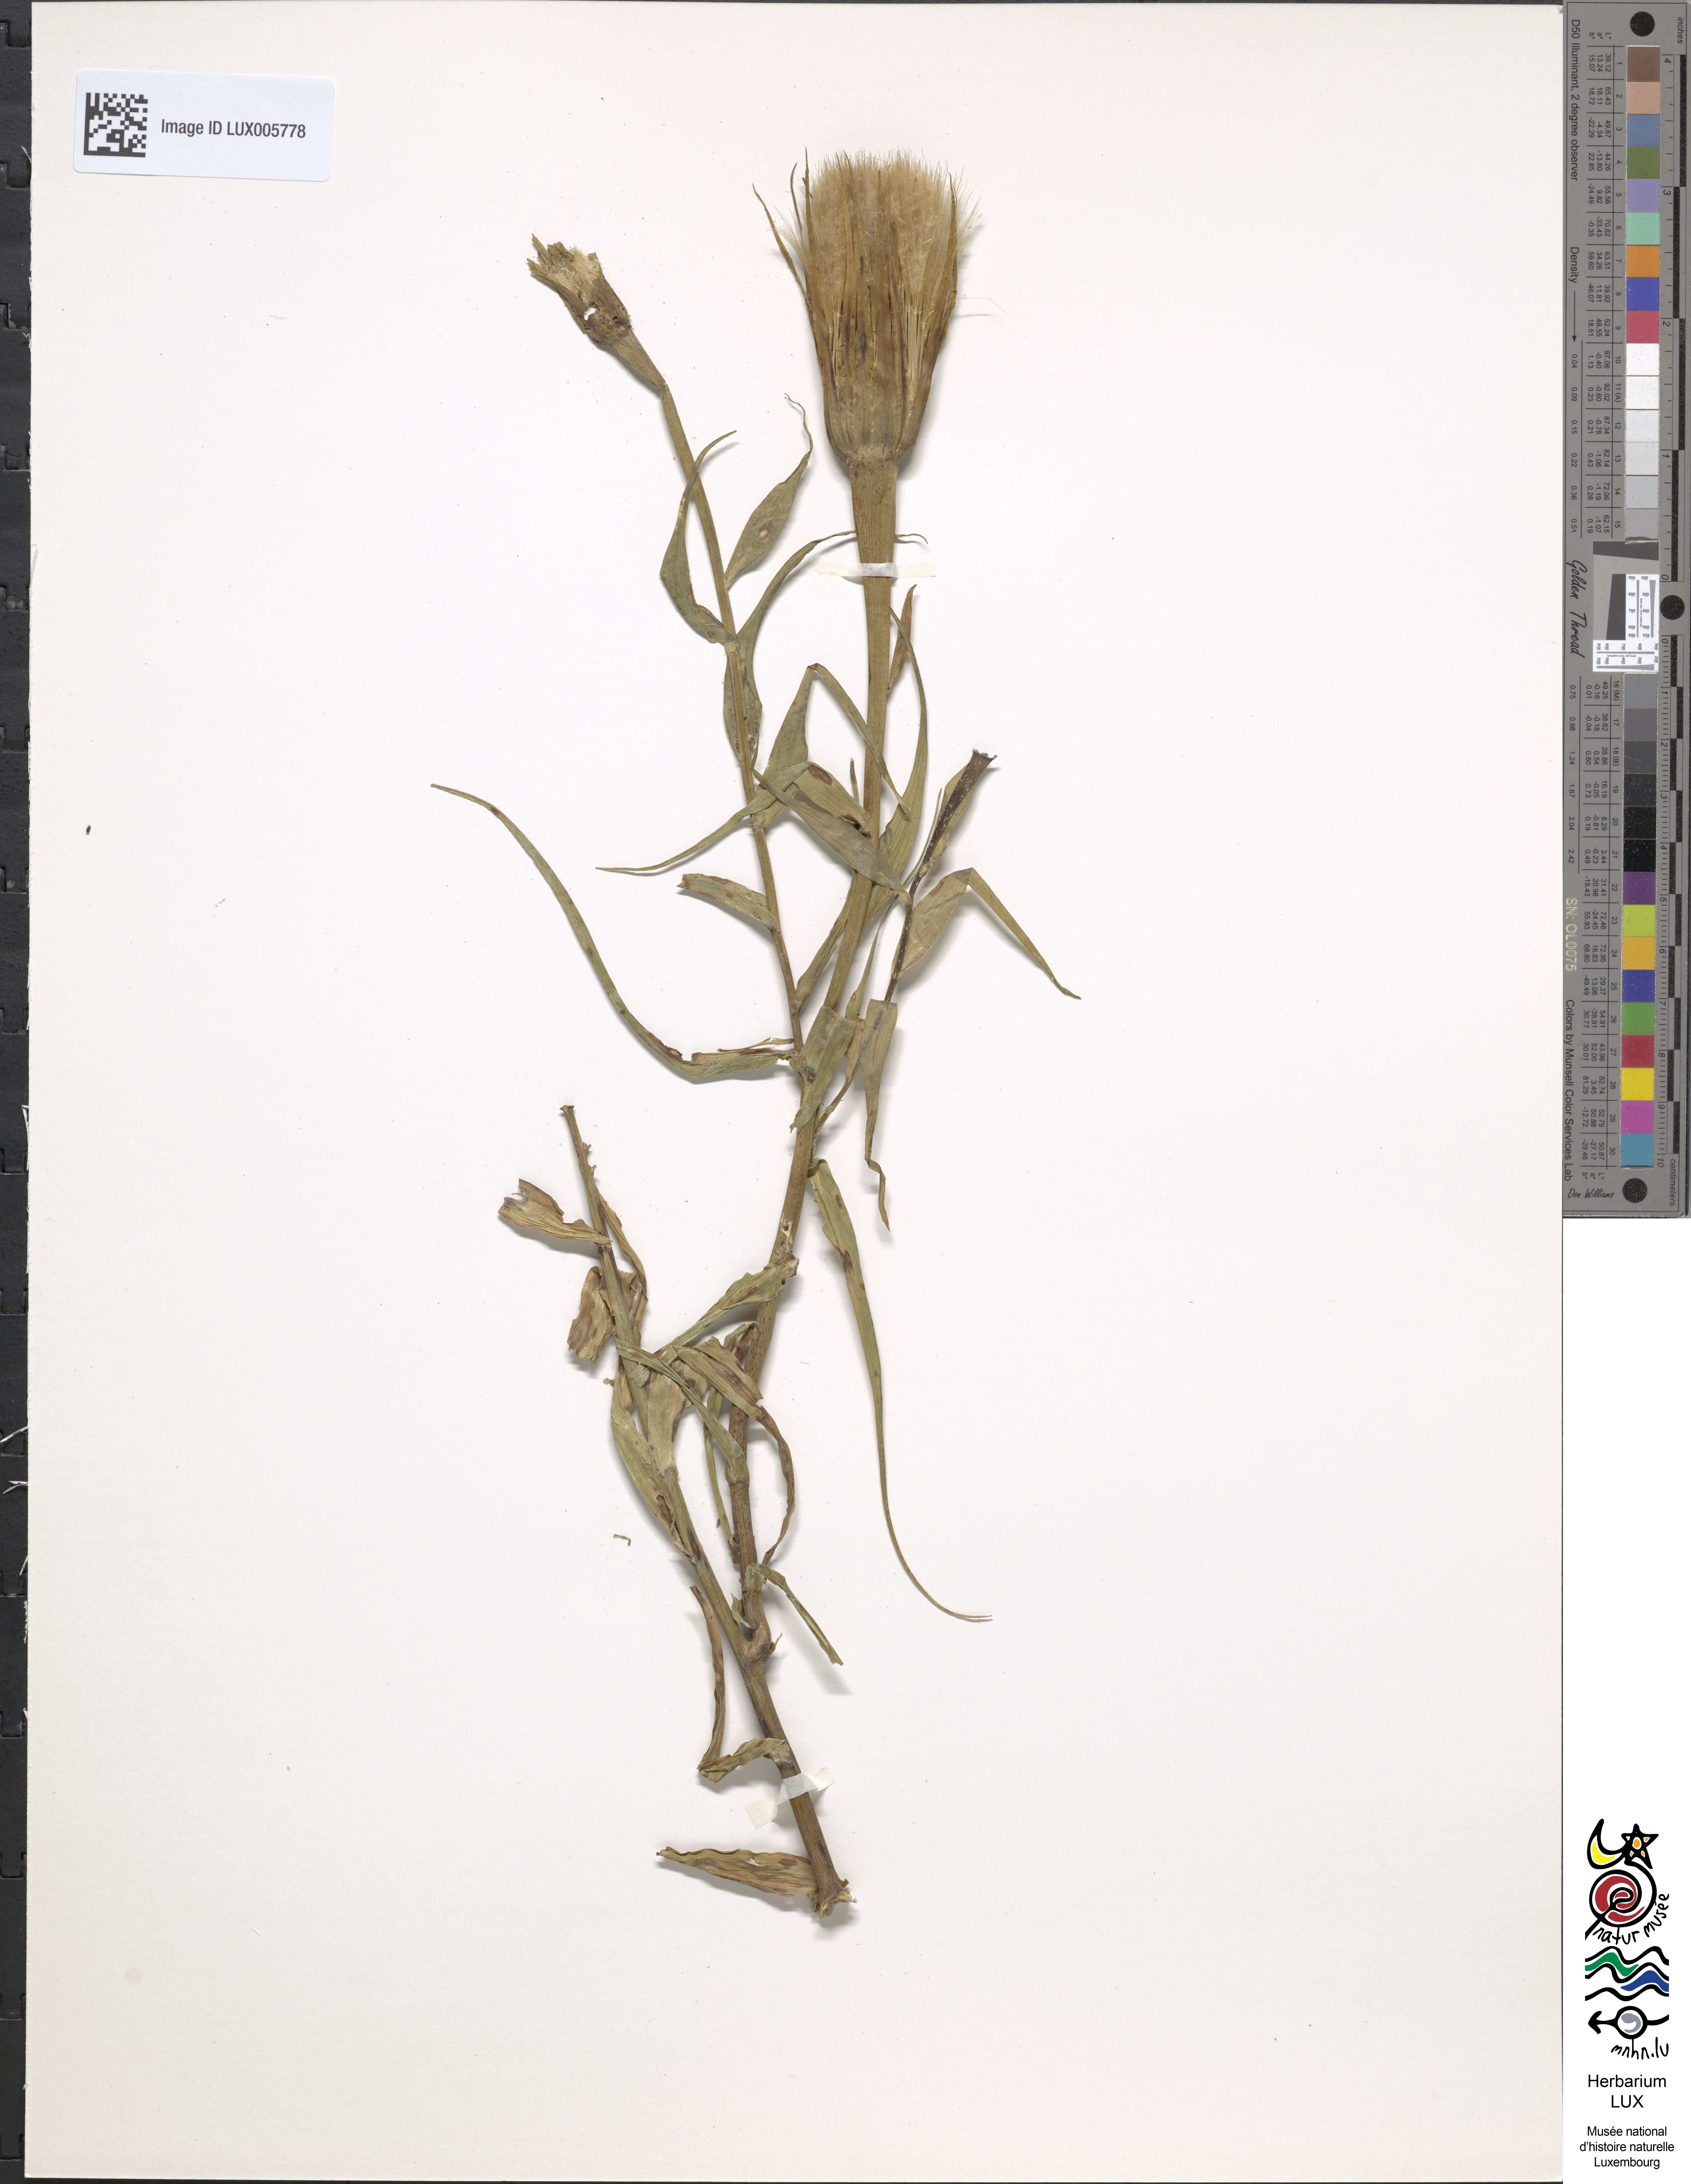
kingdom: Plantae
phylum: Tracheophyta
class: Magnoliopsida
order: Asterales
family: Asteraceae
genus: Tragopogon
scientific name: Tragopogon dubius
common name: Yellow salsify
